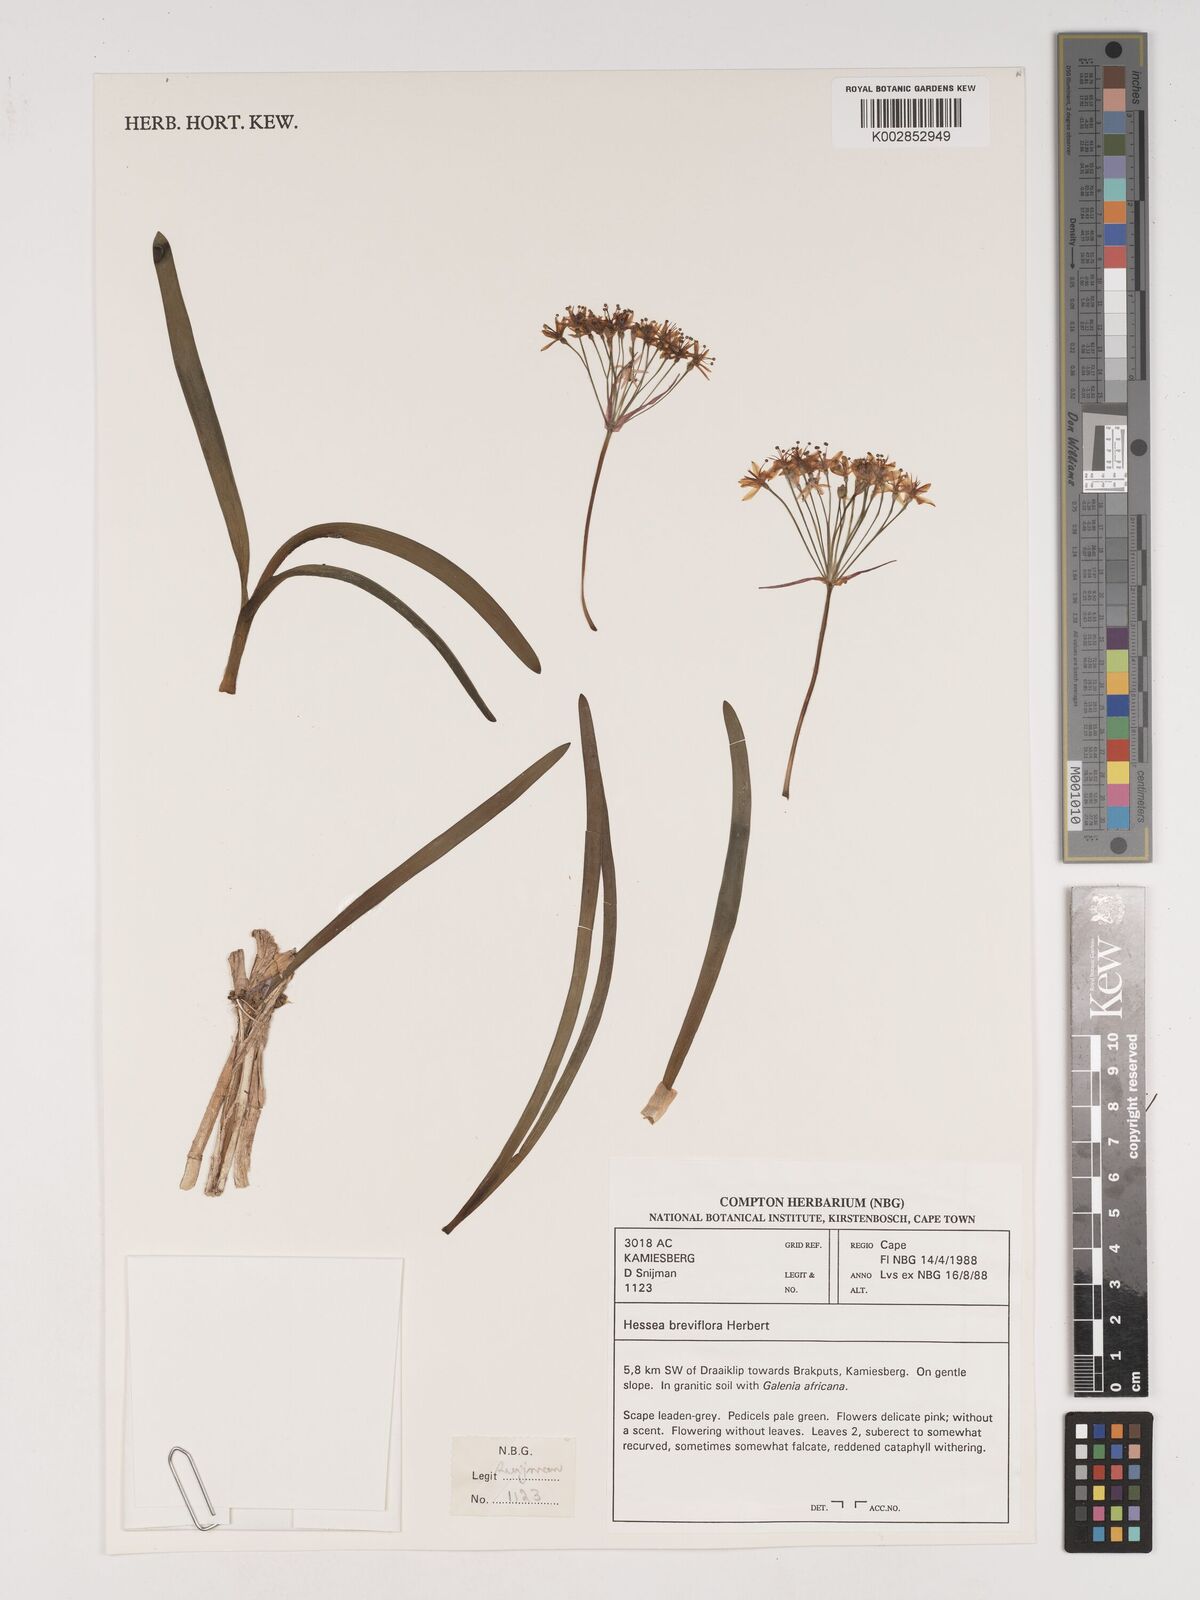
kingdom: Plantae
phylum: Tracheophyta
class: Liliopsida
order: Asparagales
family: Amaryllidaceae
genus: Hessea
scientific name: Hessea breviflora
